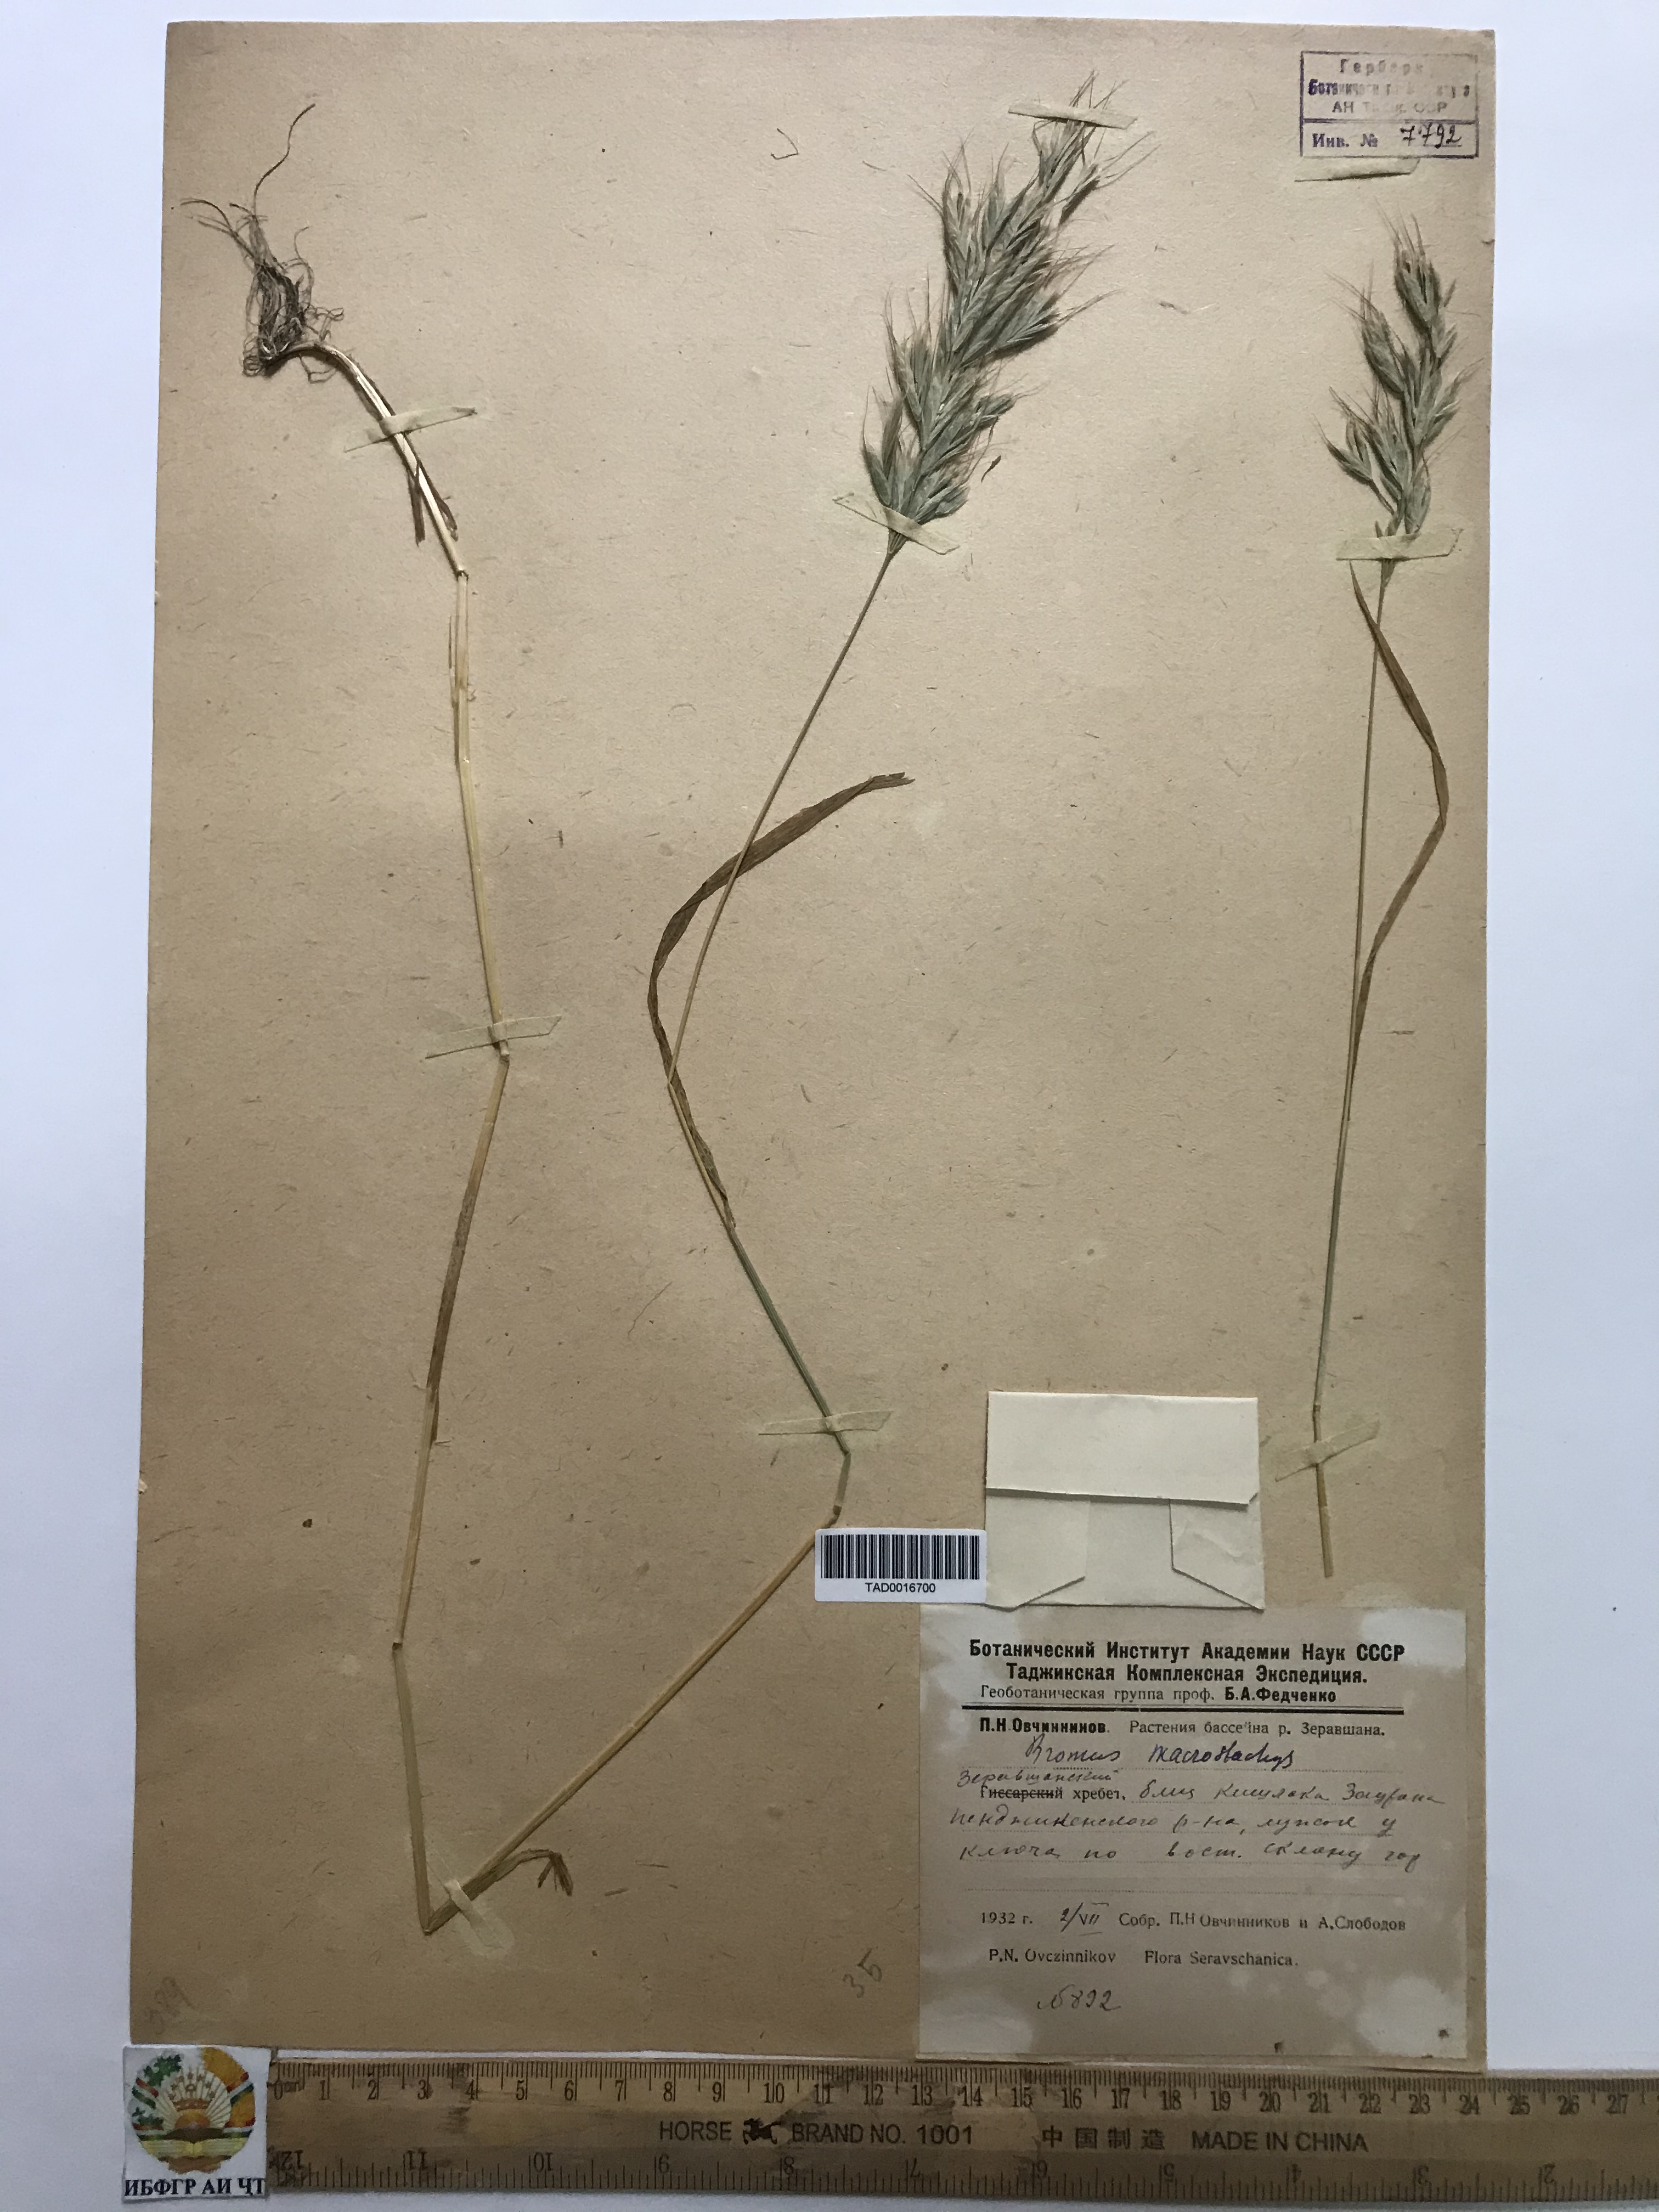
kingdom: Plantae
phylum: Tracheophyta
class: Liliopsida
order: Poales
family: Poaceae
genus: Bromus
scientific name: Bromus lanceolatus
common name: Mediterranean brome
